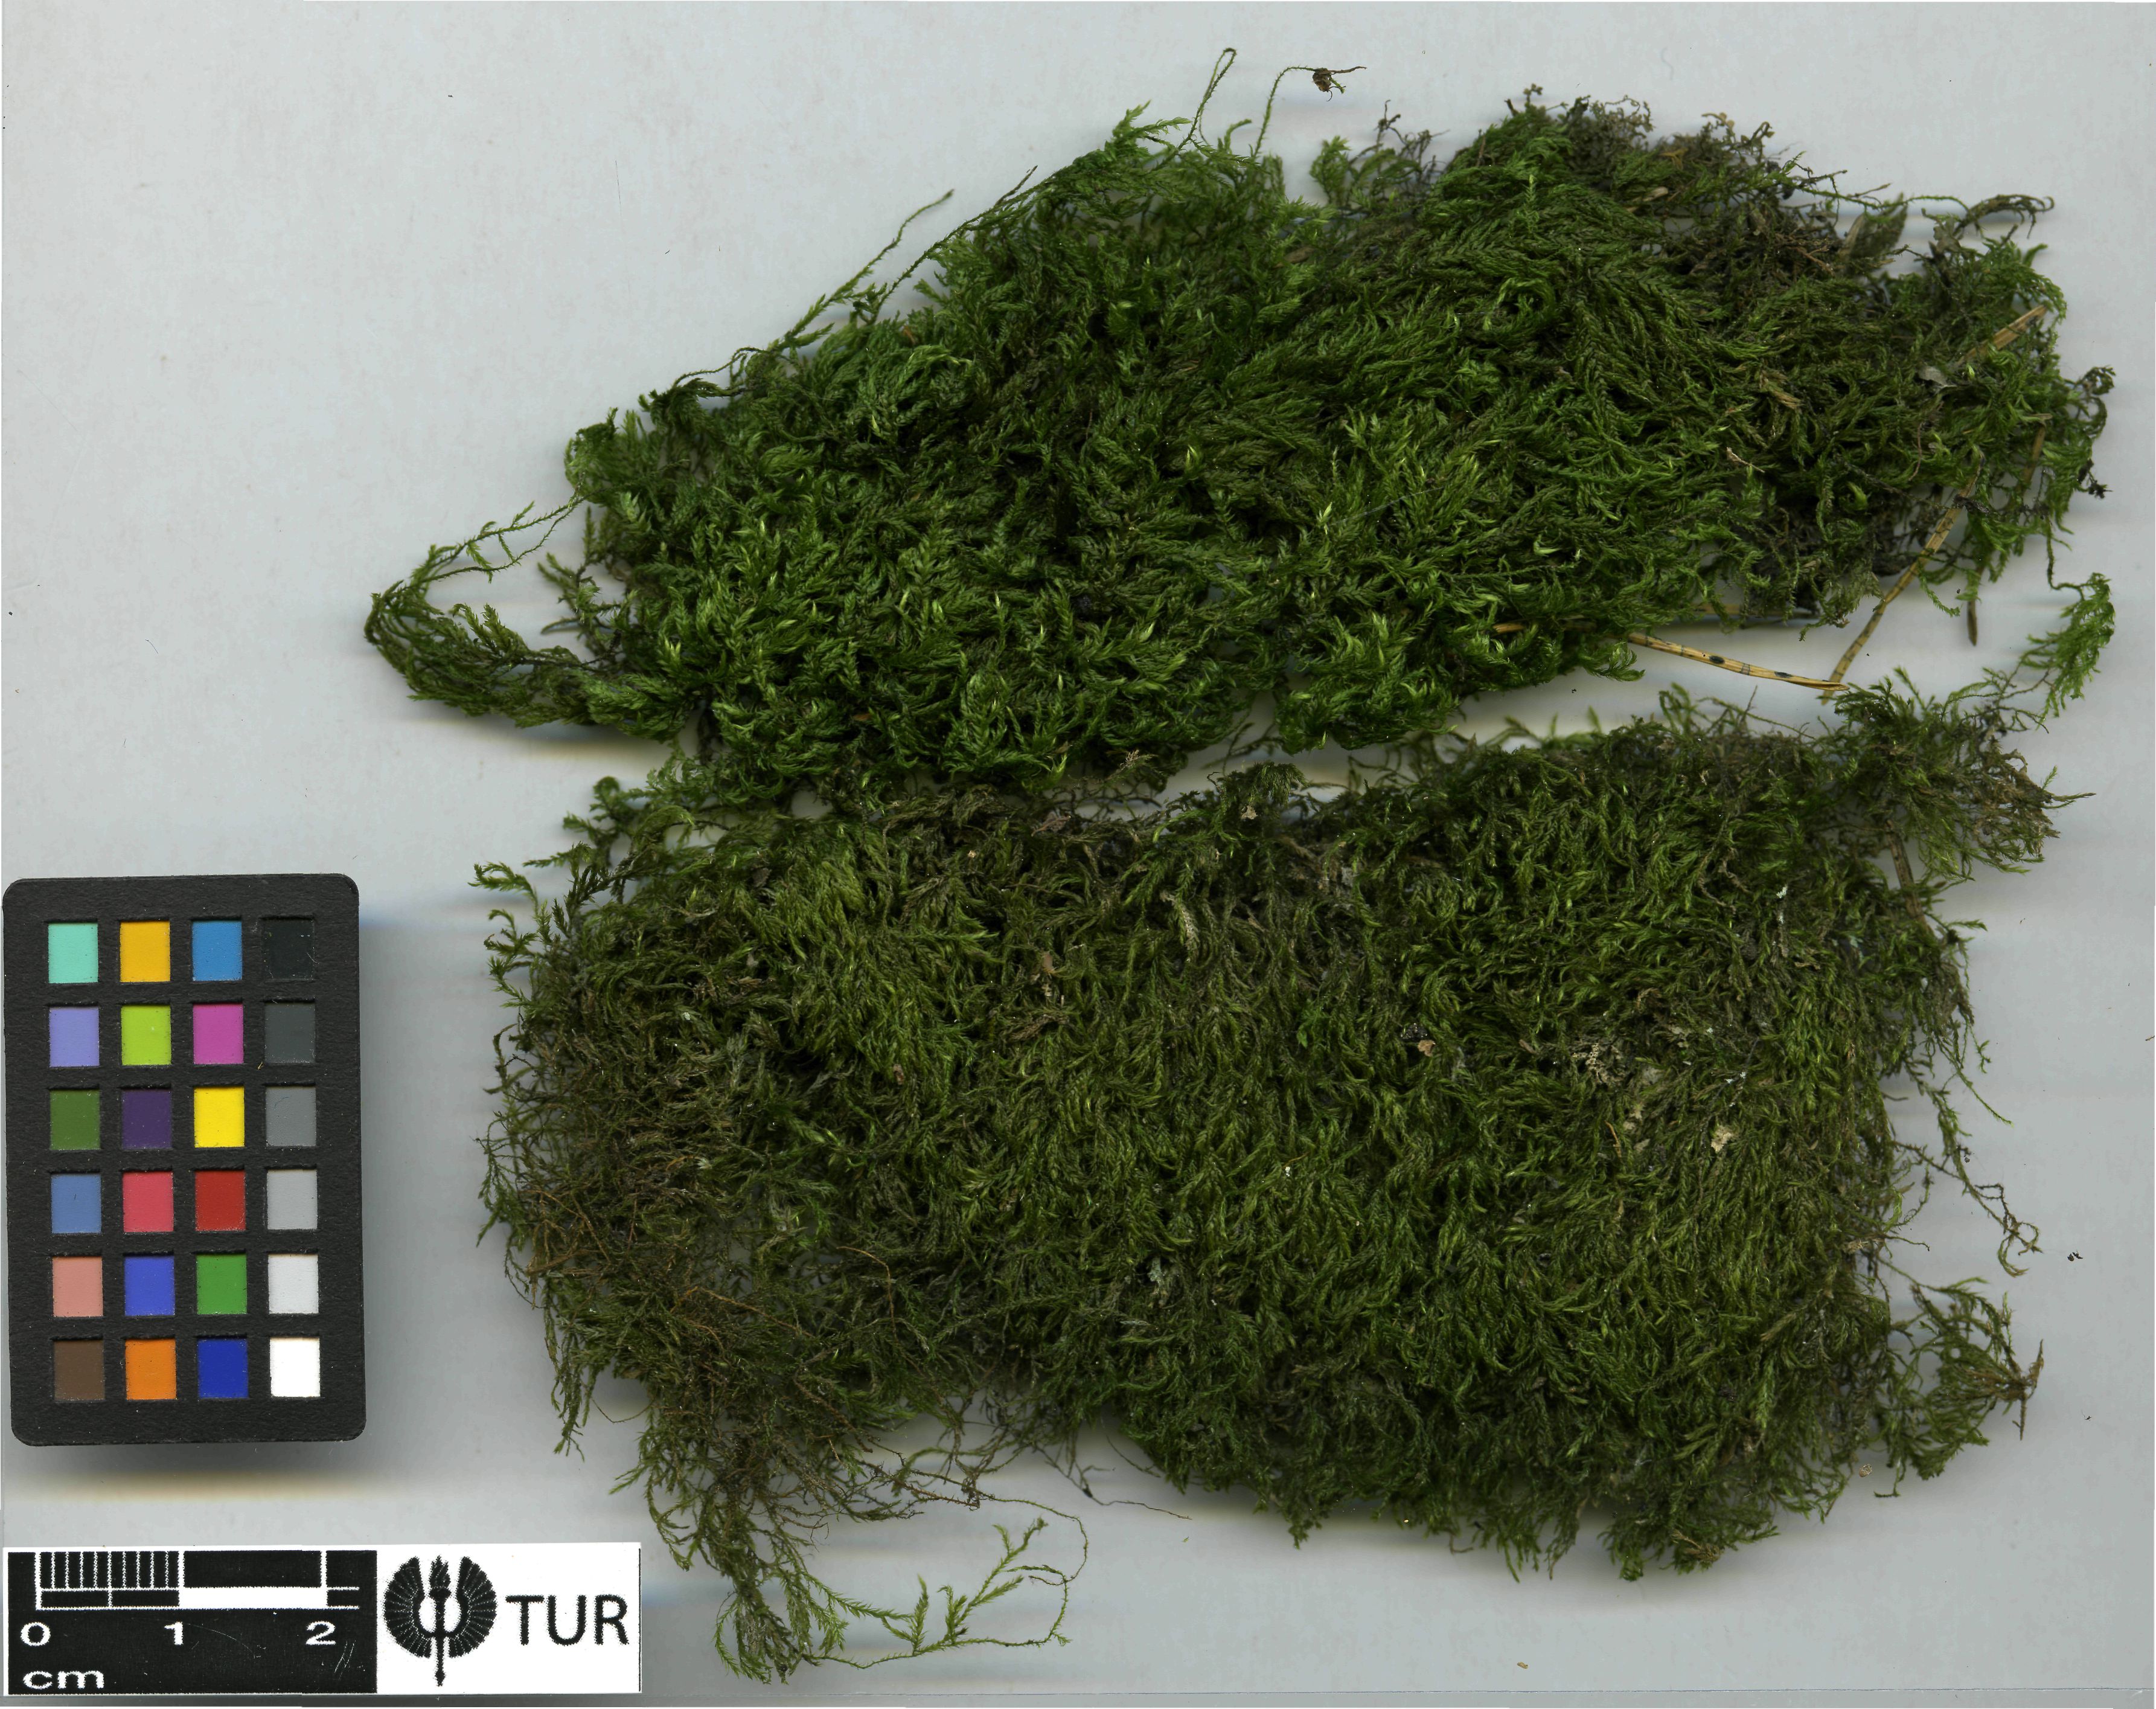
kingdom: Plantae
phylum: Bryophyta
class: Bryopsida
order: Hypnales
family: Lembophyllaceae
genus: Pseudisothecium
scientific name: Pseudisothecium myosuroides
